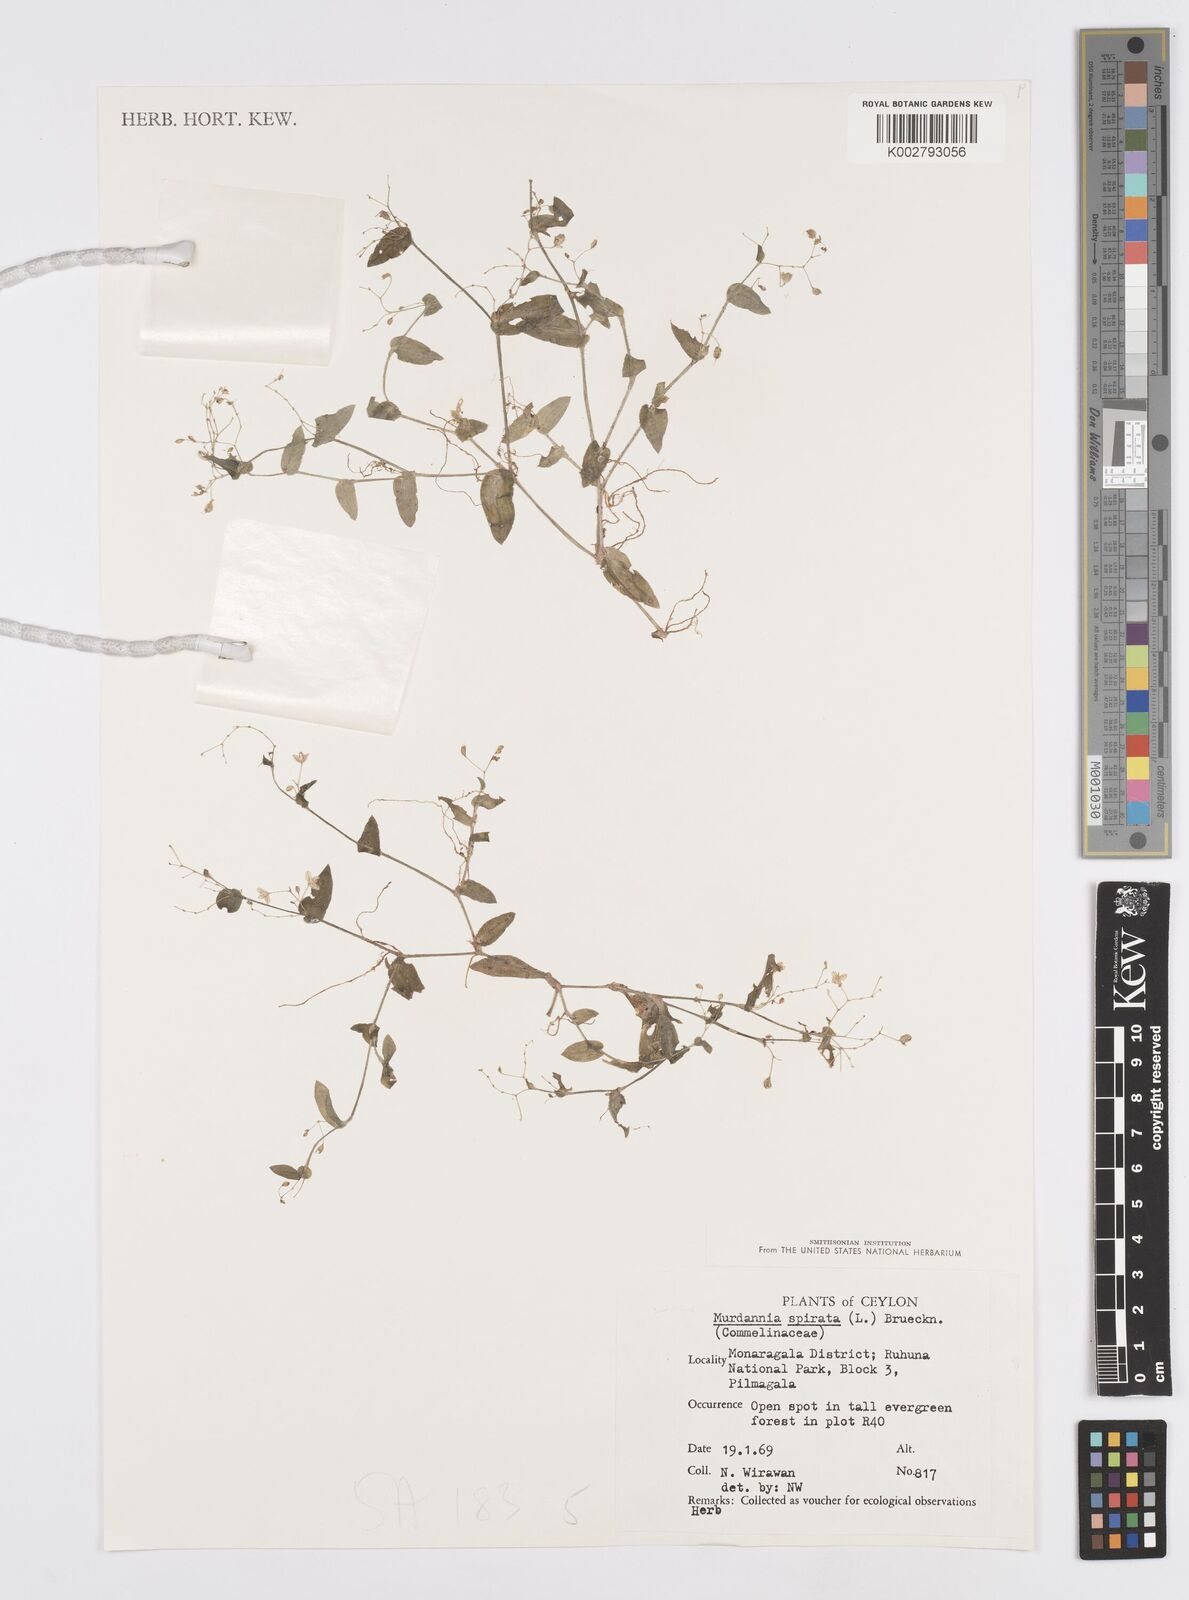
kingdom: Plantae
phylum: Tracheophyta
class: Liliopsida
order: Commelinales
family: Commelinaceae
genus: Murdannia
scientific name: Murdannia spirata
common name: Asiatic dewflower
